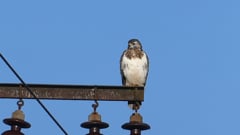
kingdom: Animalia
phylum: Chordata
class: Aves
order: Accipitriformes
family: Accipitridae
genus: Buteo
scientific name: Buteo buteo
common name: Common buzzard
